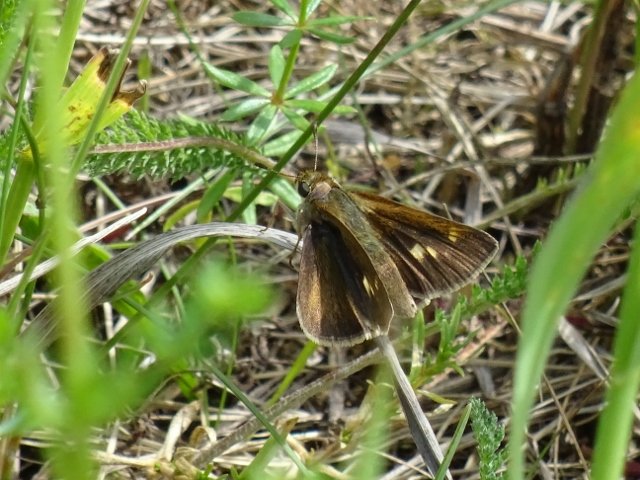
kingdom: Animalia
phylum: Arthropoda
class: Insecta
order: Lepidoptera
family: Hesperiidae
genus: Polites
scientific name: Polites themistocles
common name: Tawny-edged Skipper
